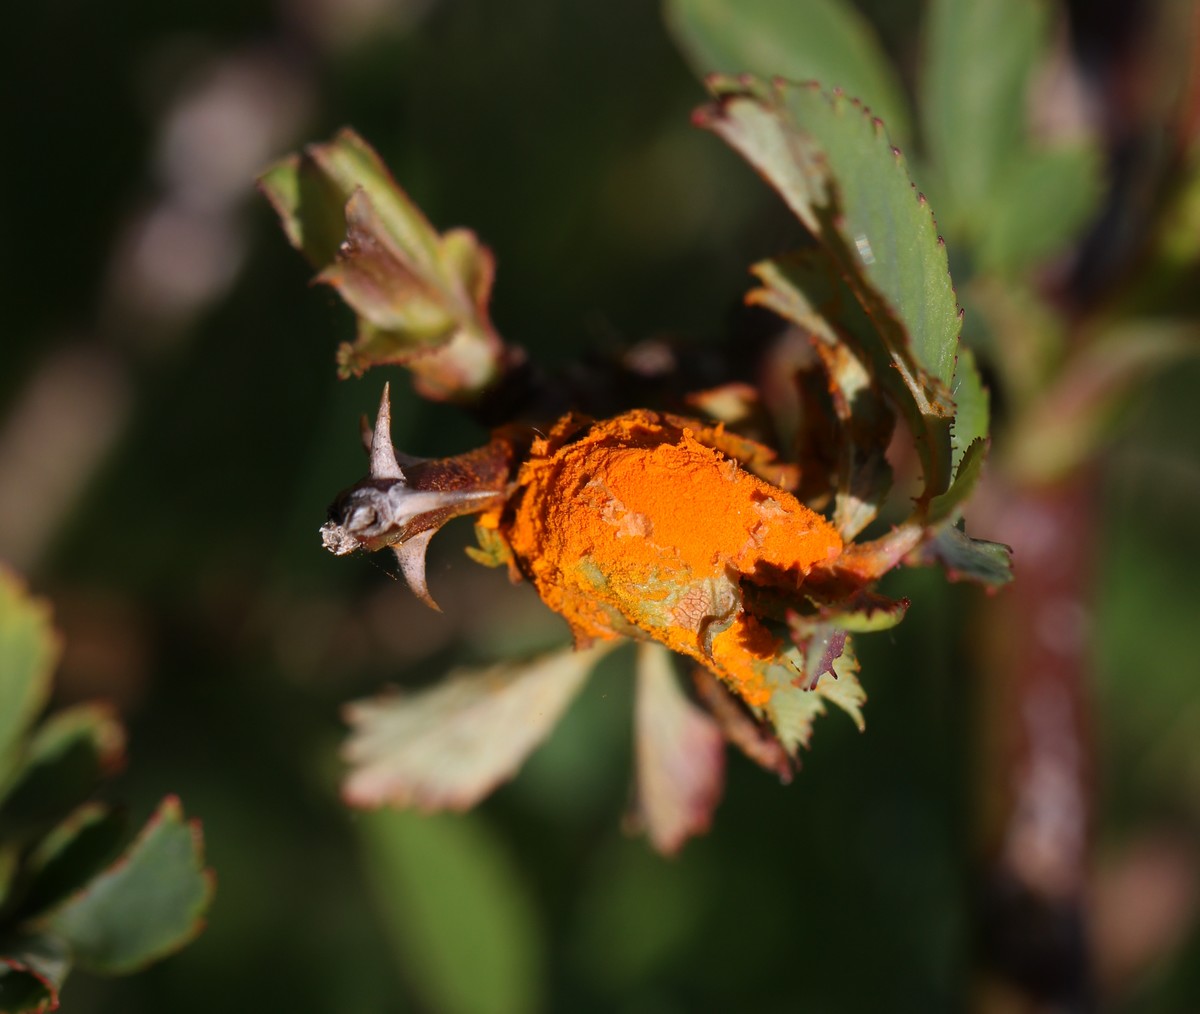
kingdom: Fungi
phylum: Basidiomycota
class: Pucciniomycetes
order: Pucciniales
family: Phragmidiaceae
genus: Phragmidium
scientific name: Phragmidium
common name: flercellerust
